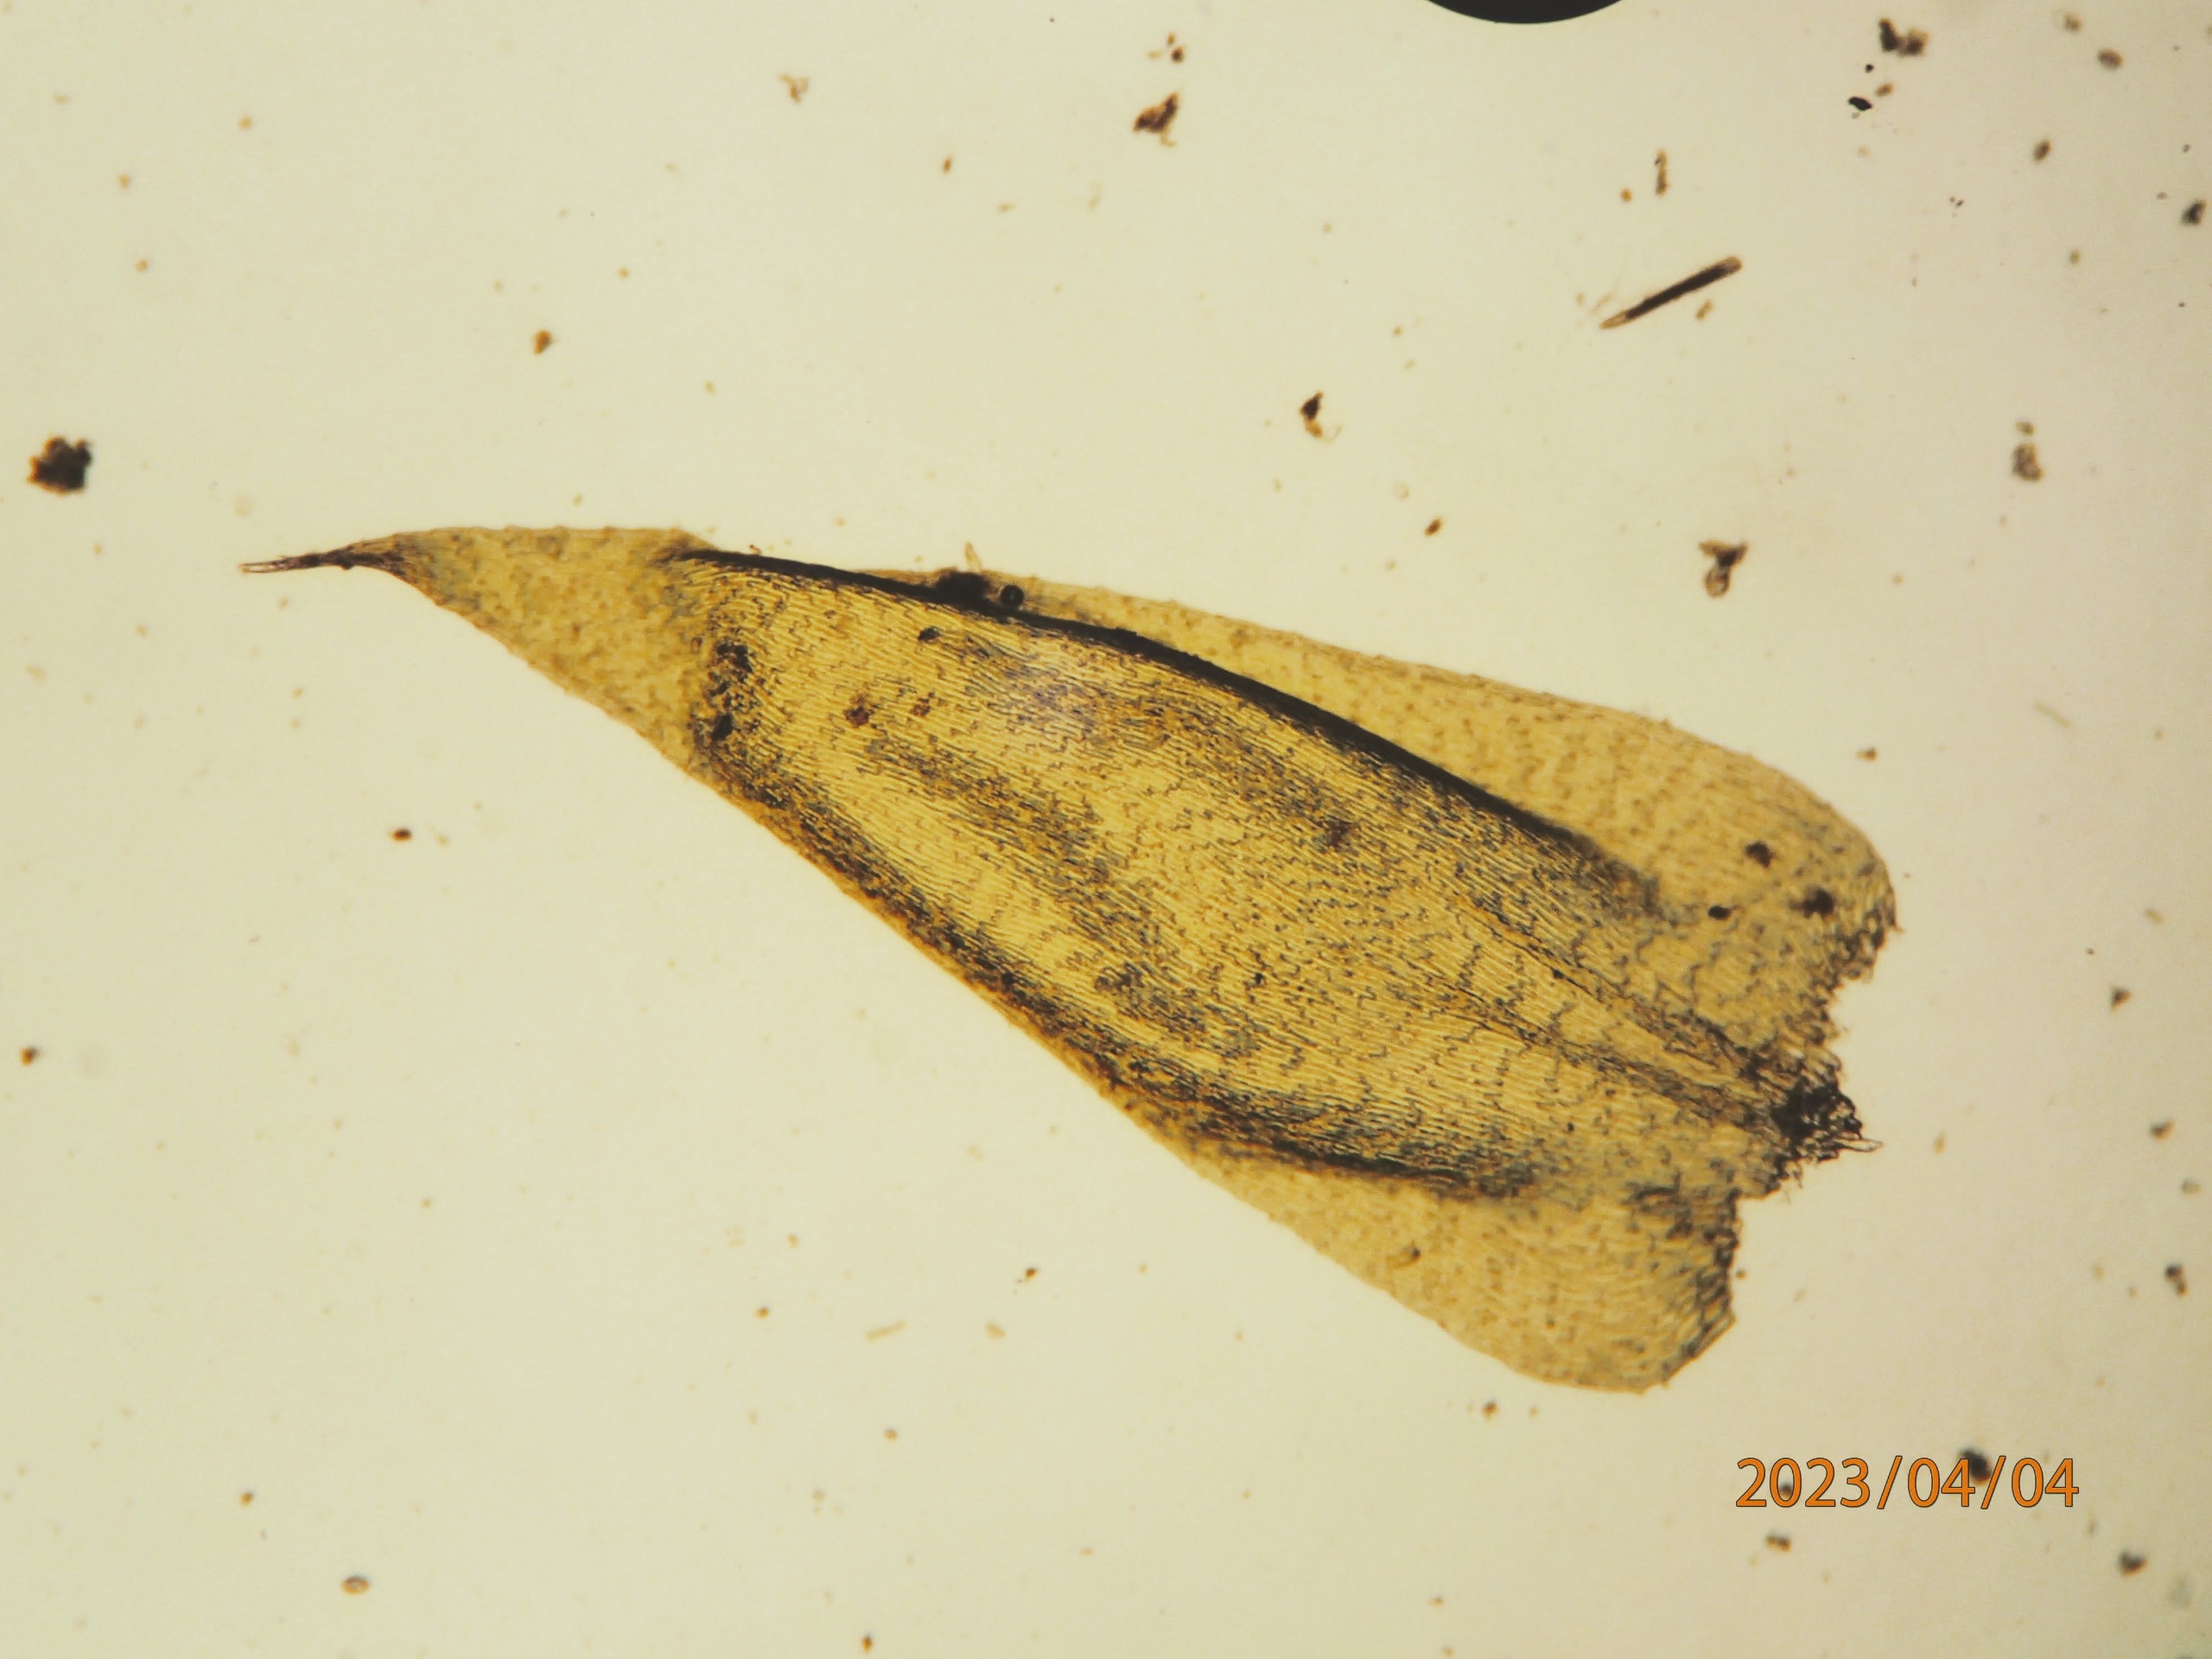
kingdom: Plantae
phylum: Bryophyta
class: Bryopsida
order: Hypnales
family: Plagiotheciaceae
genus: Herzogiella
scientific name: Herzogiella seligeri
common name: Stub-pølsekapsel
